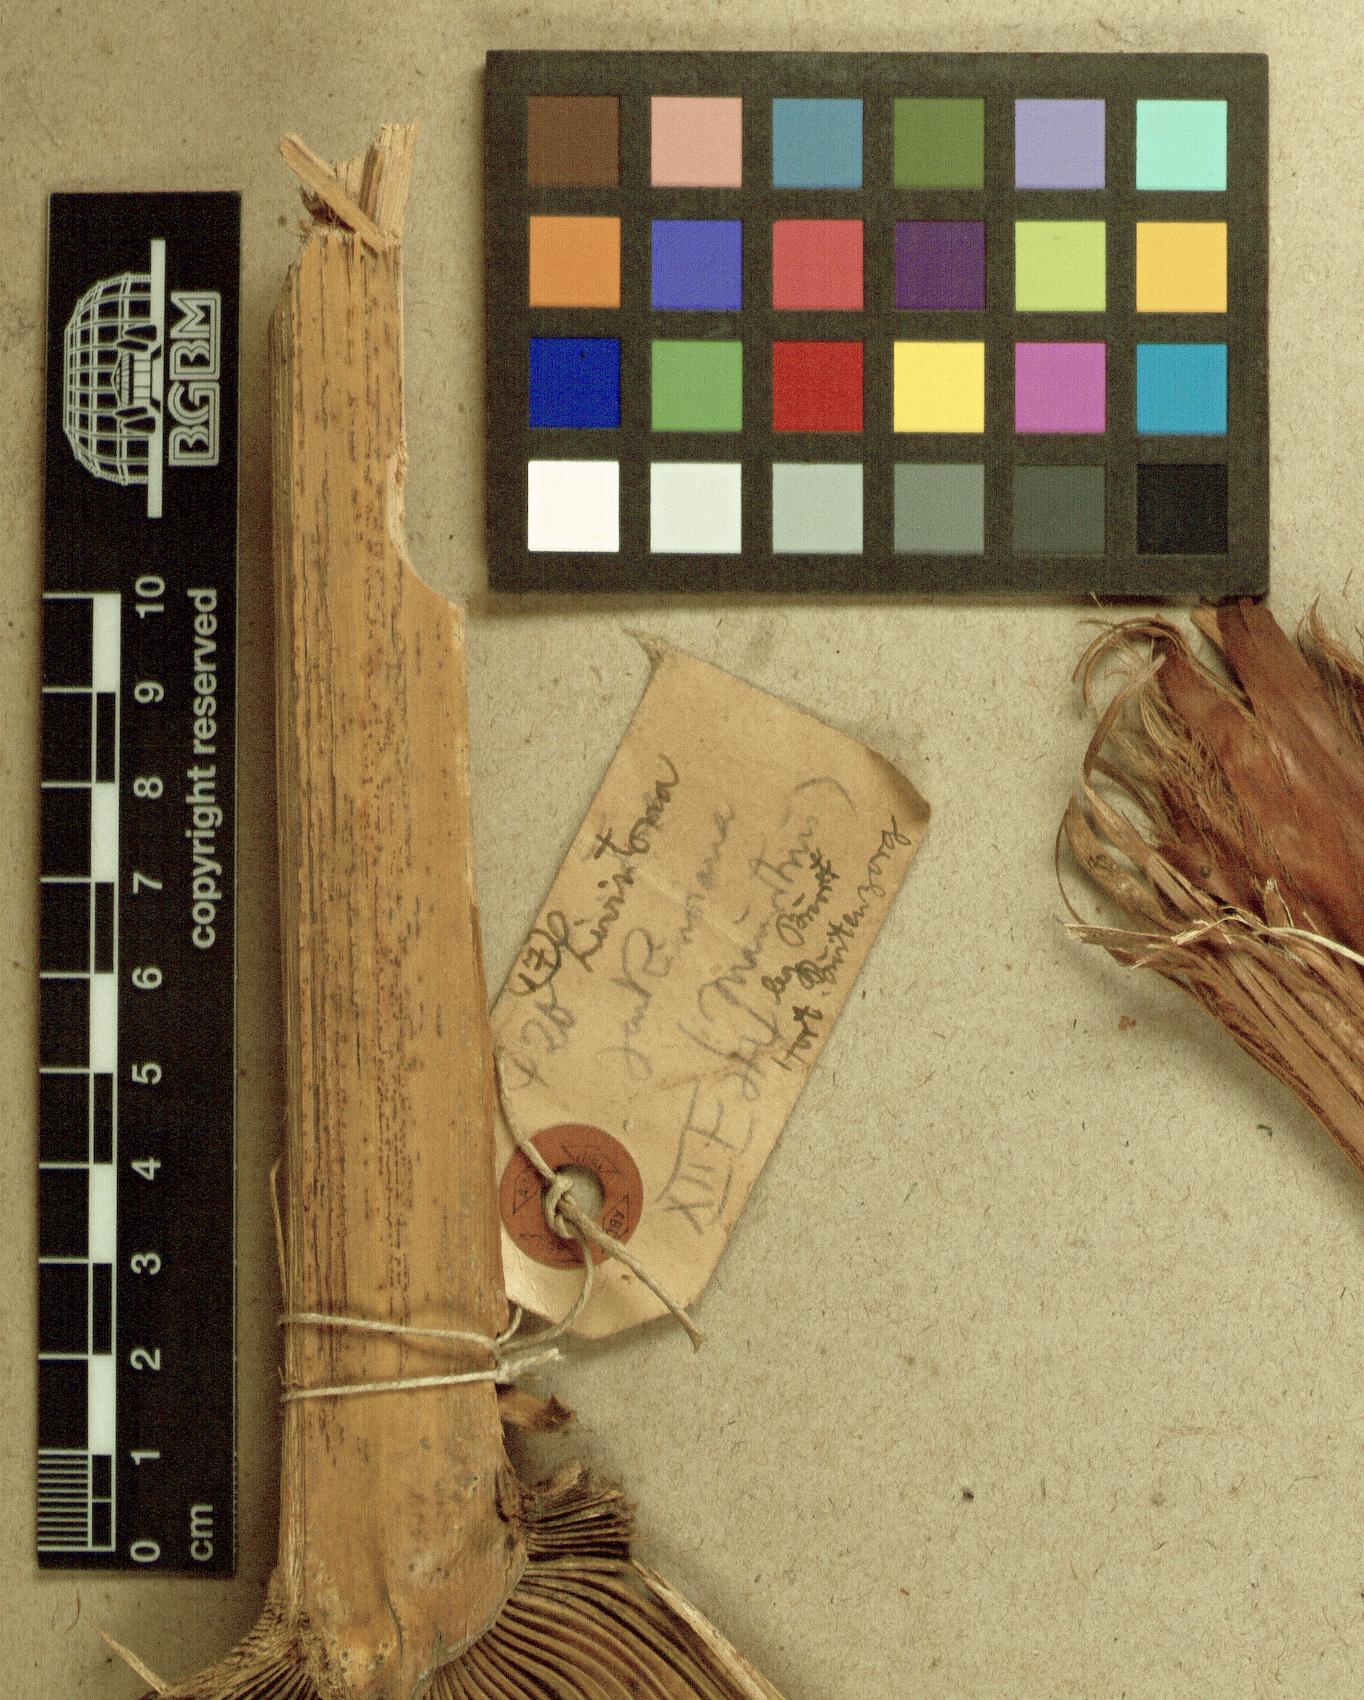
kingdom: Plantae
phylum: Tracheophyta
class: Liliopsida
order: Arecales
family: Arecaceae
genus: Livistona
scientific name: Livistona jenkinsiana
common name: Himalayan fan palm
